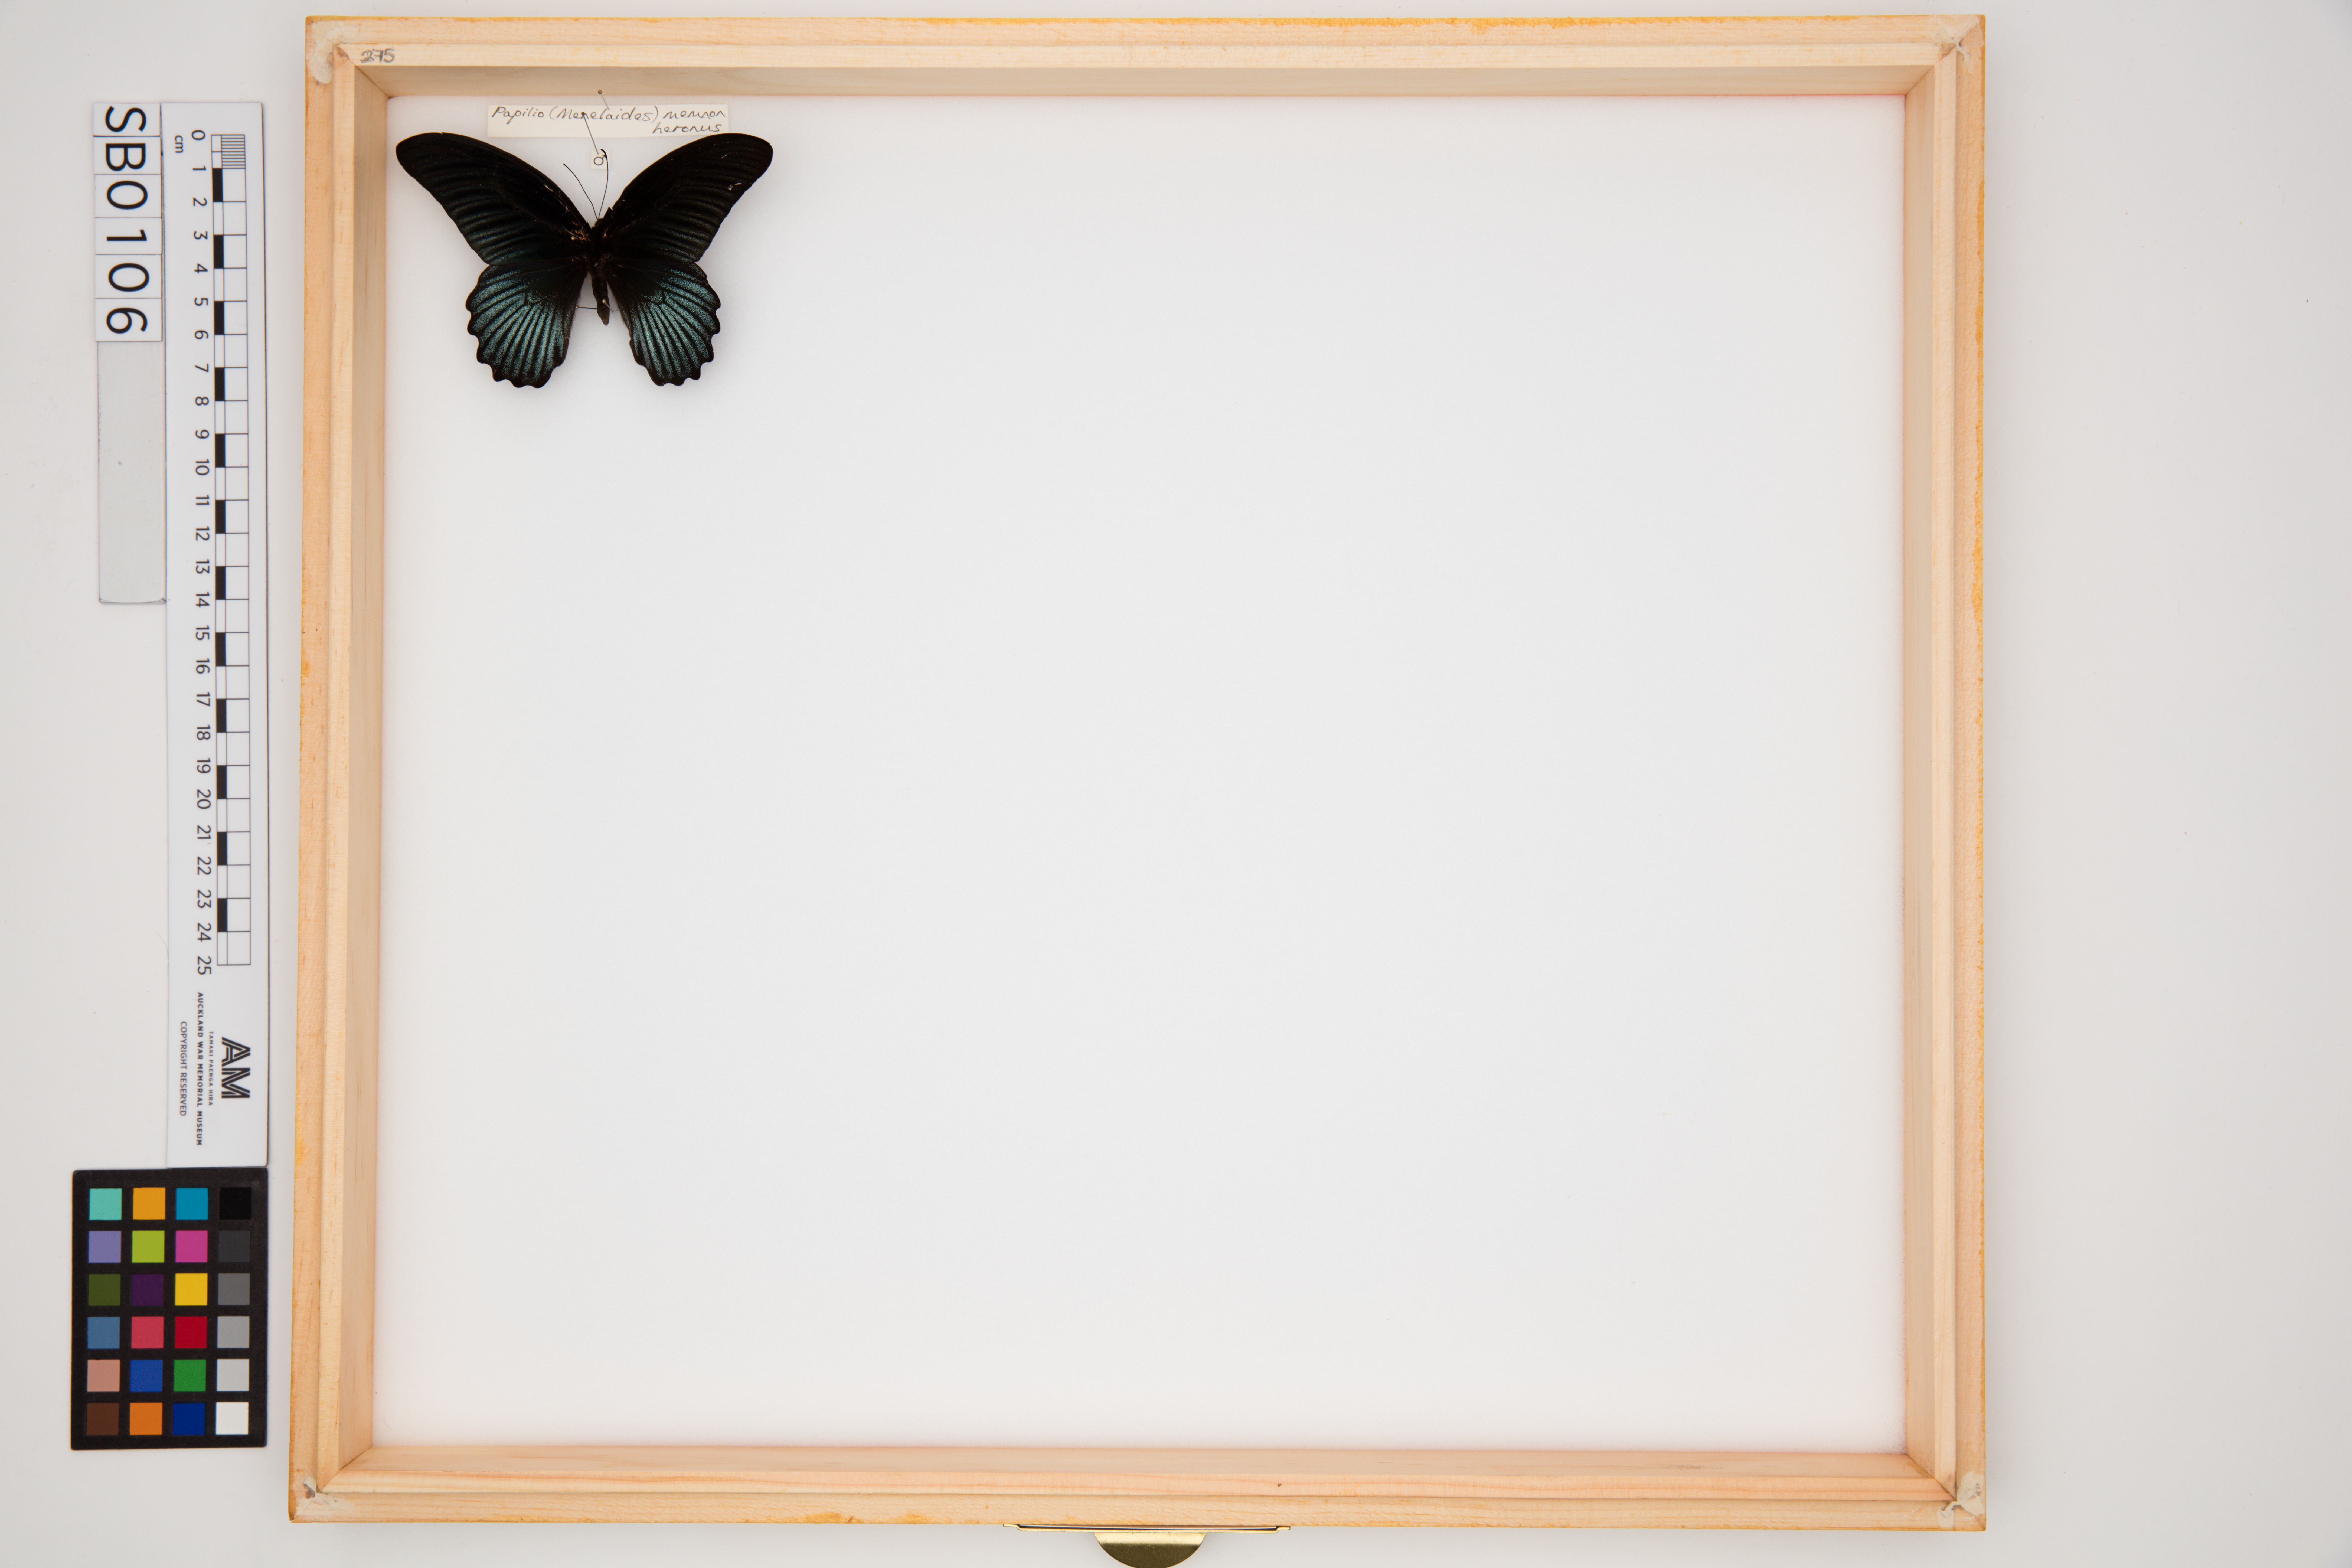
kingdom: Animalia
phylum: Arthropoda
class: Insecta
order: Lepidoptera
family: Papilionidae
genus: Papilio
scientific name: Papilio memnon
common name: Great mormon
